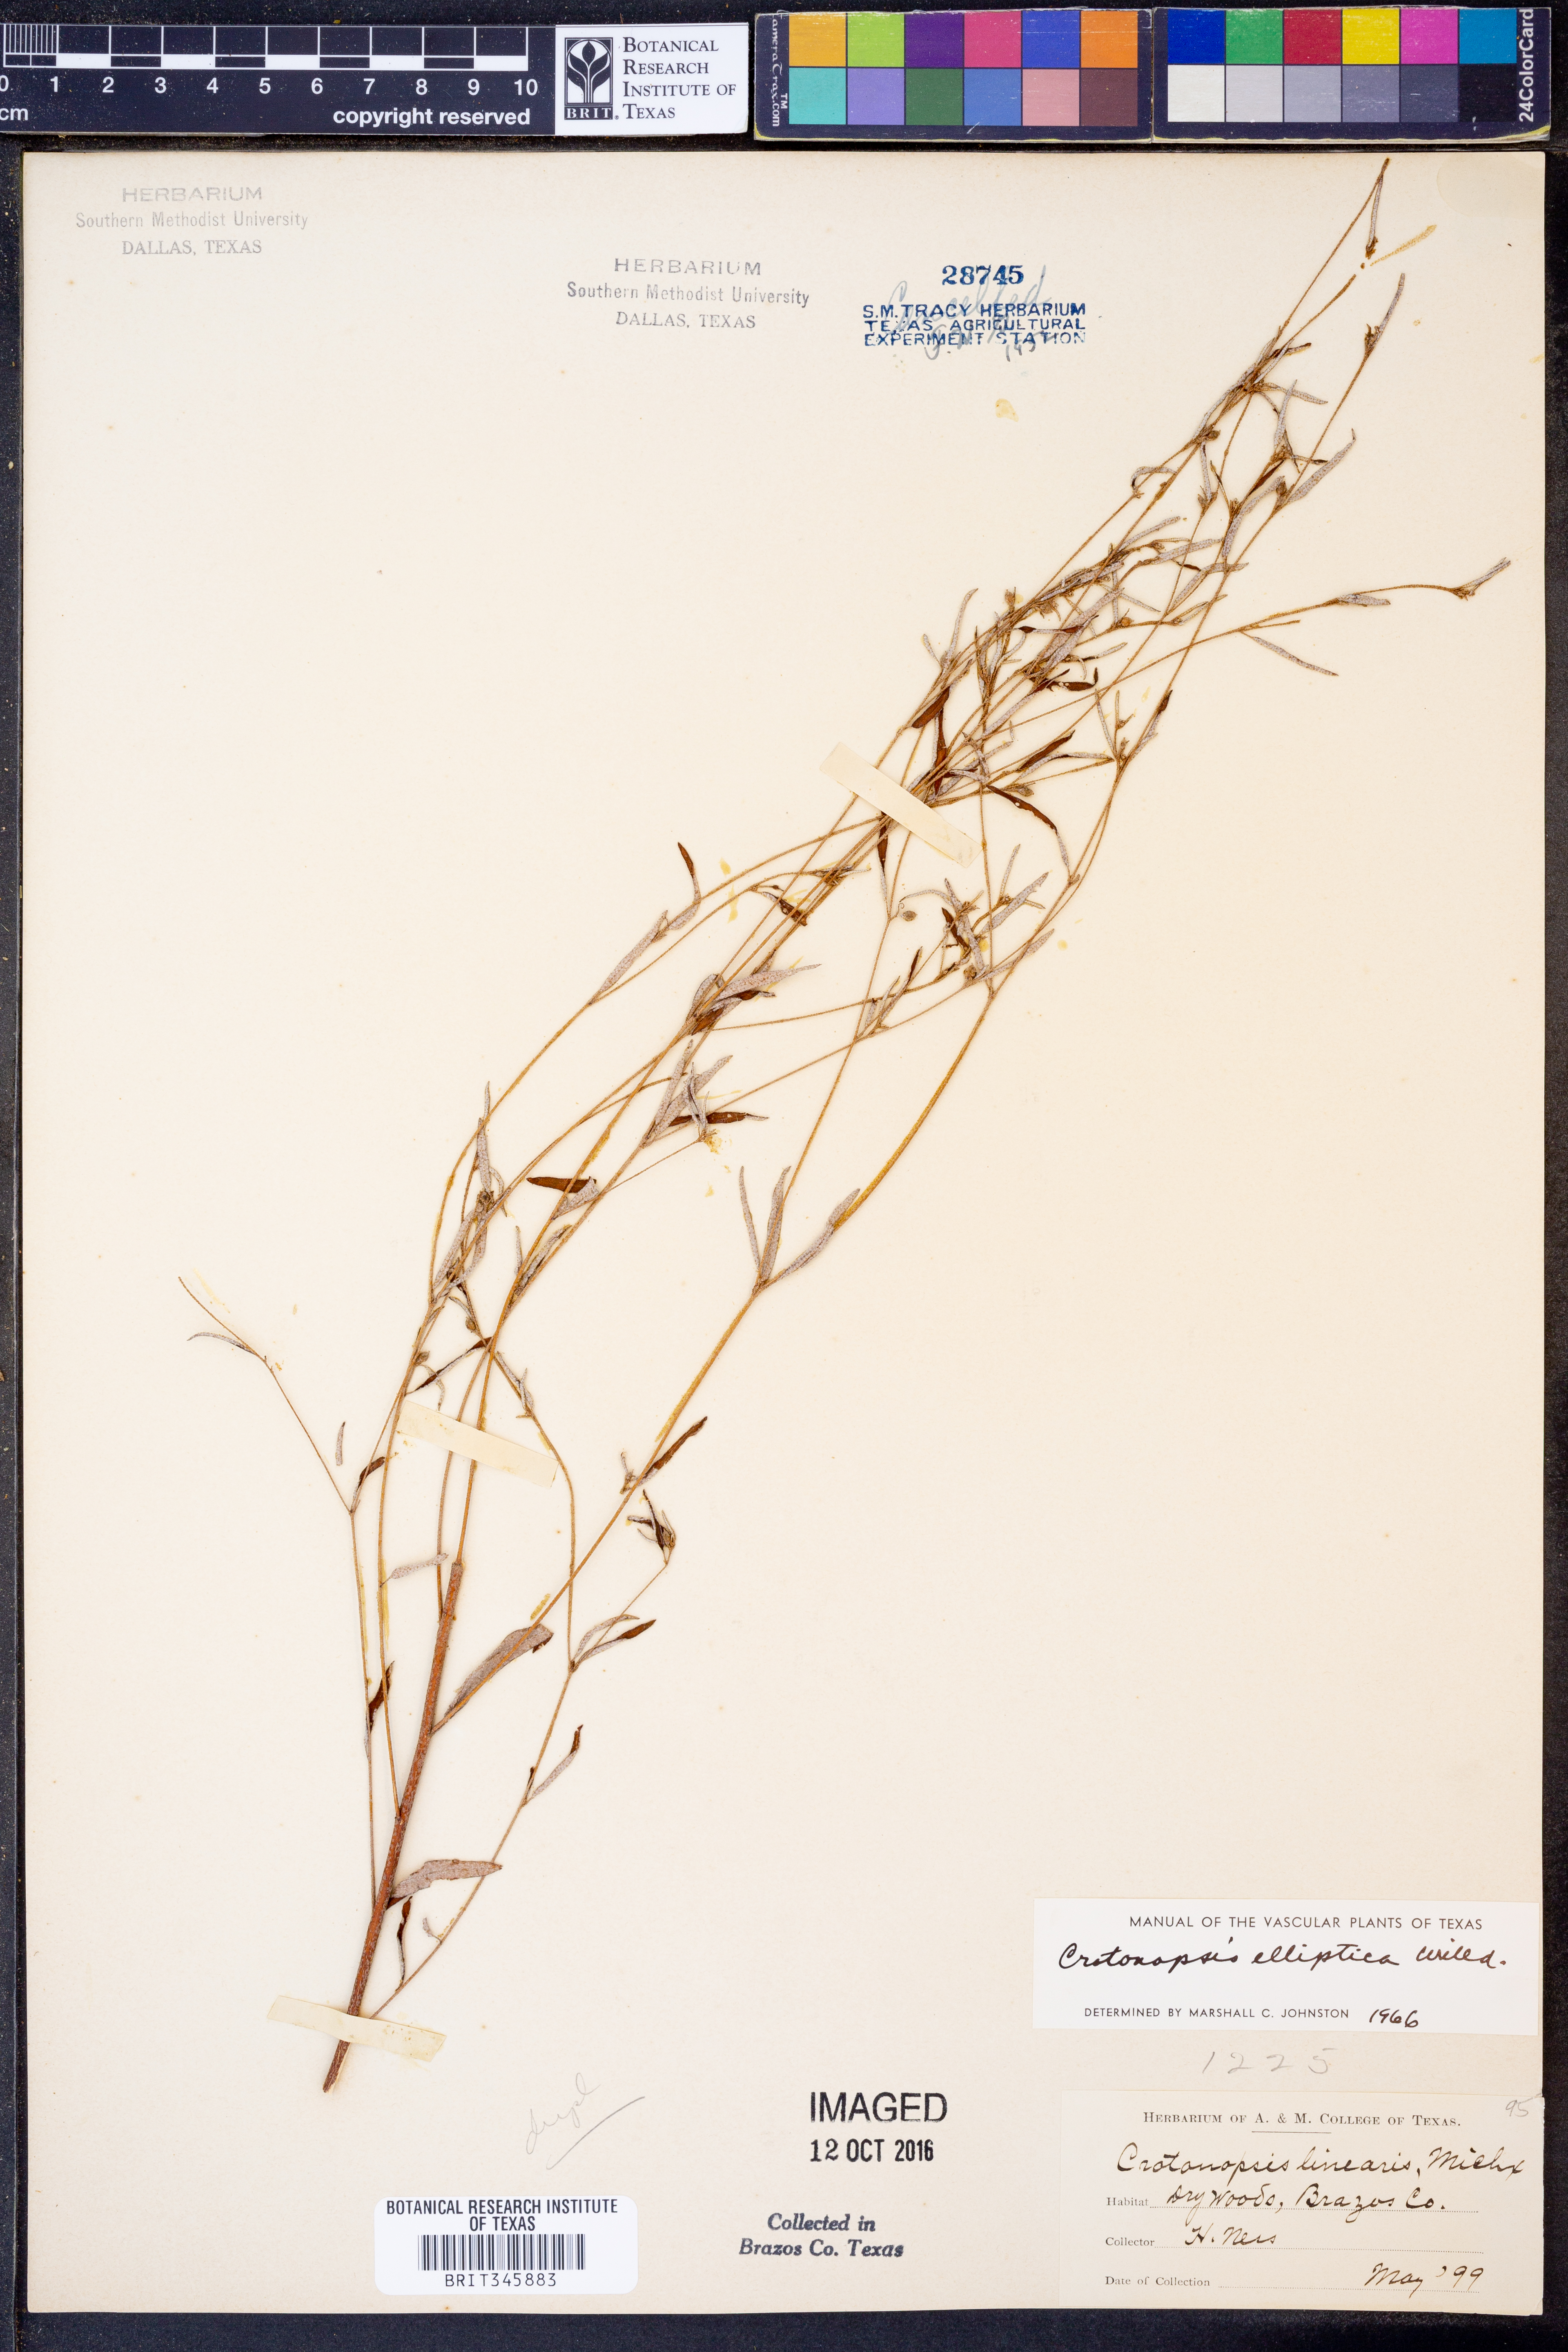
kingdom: Plantae
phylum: Tracheophyta
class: Magnoliopsida
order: Malpighiales
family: Euphorbiaceae
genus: Croton
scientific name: Croton michauxii
